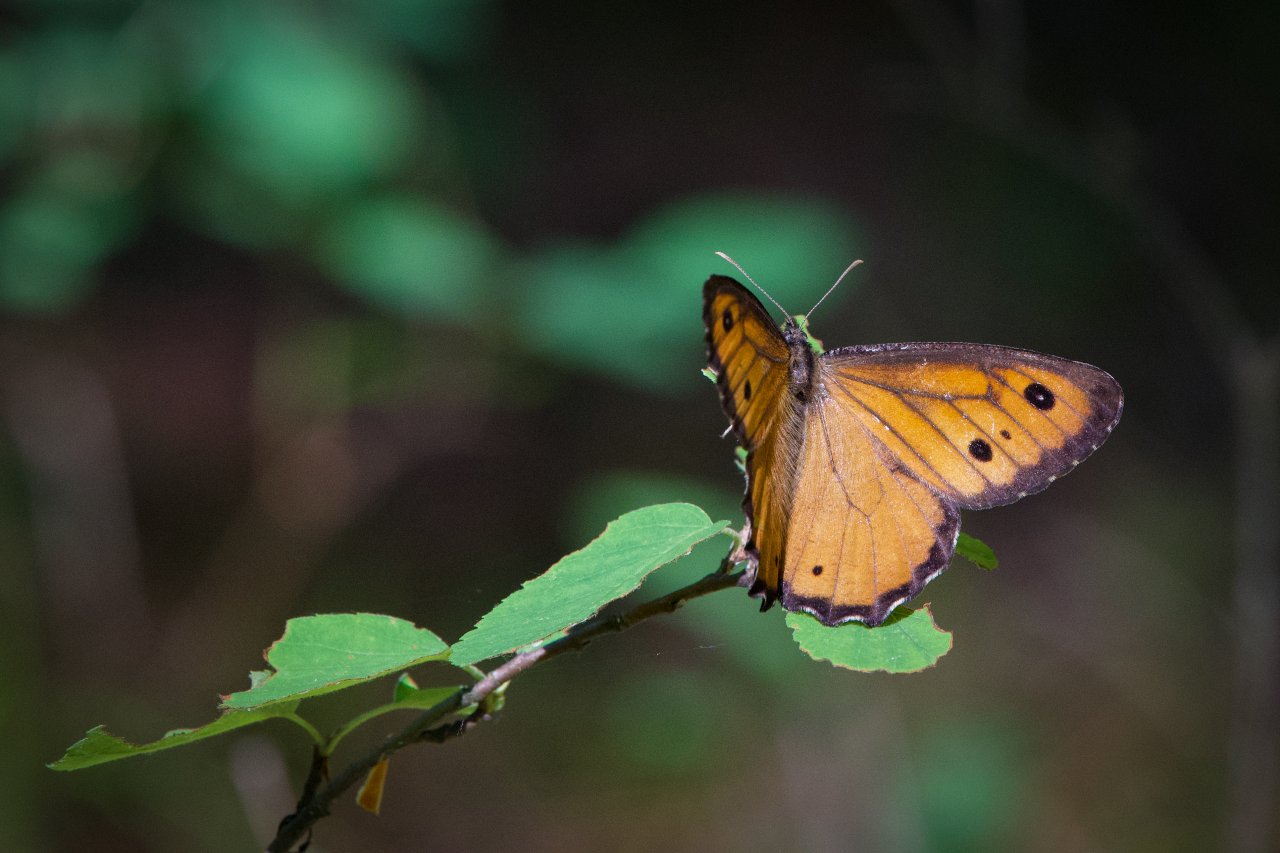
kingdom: Animalia
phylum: Arthropoda
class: Insecta
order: Lepidoptera
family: Nymphalidae
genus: Oeneis
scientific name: Oeneis macounii
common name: Macoun's Arctic
